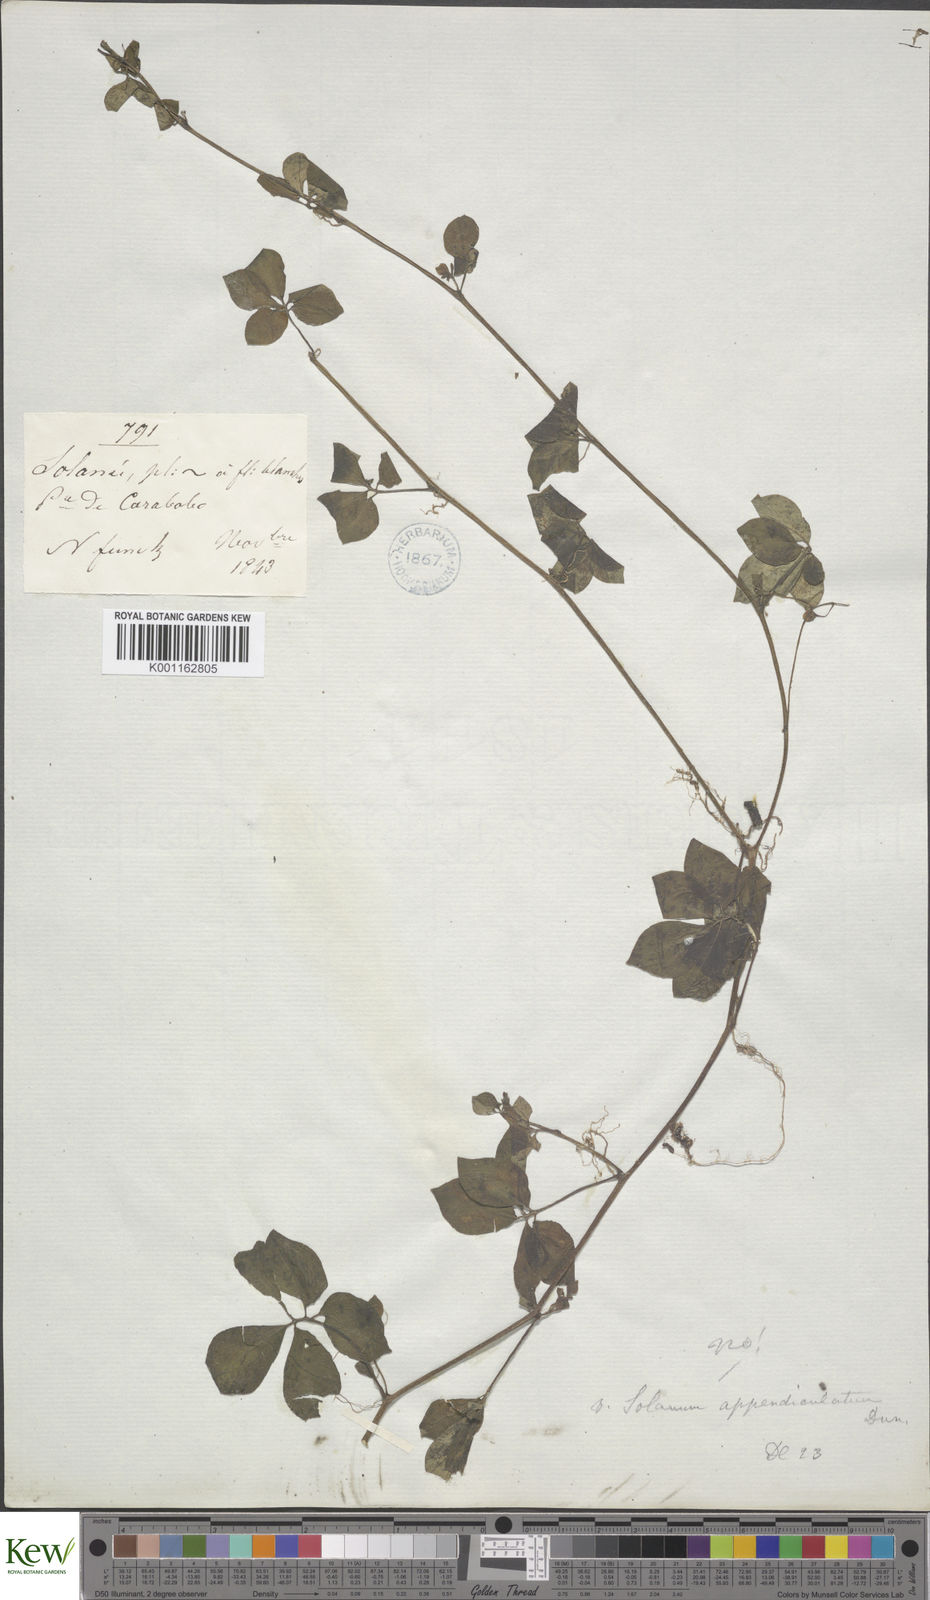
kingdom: Plantae
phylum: Tracheophyta
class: Magnoliopsida
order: Solanales
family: Solanaceae
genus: Solanum
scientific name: Solanum appendiculatum
